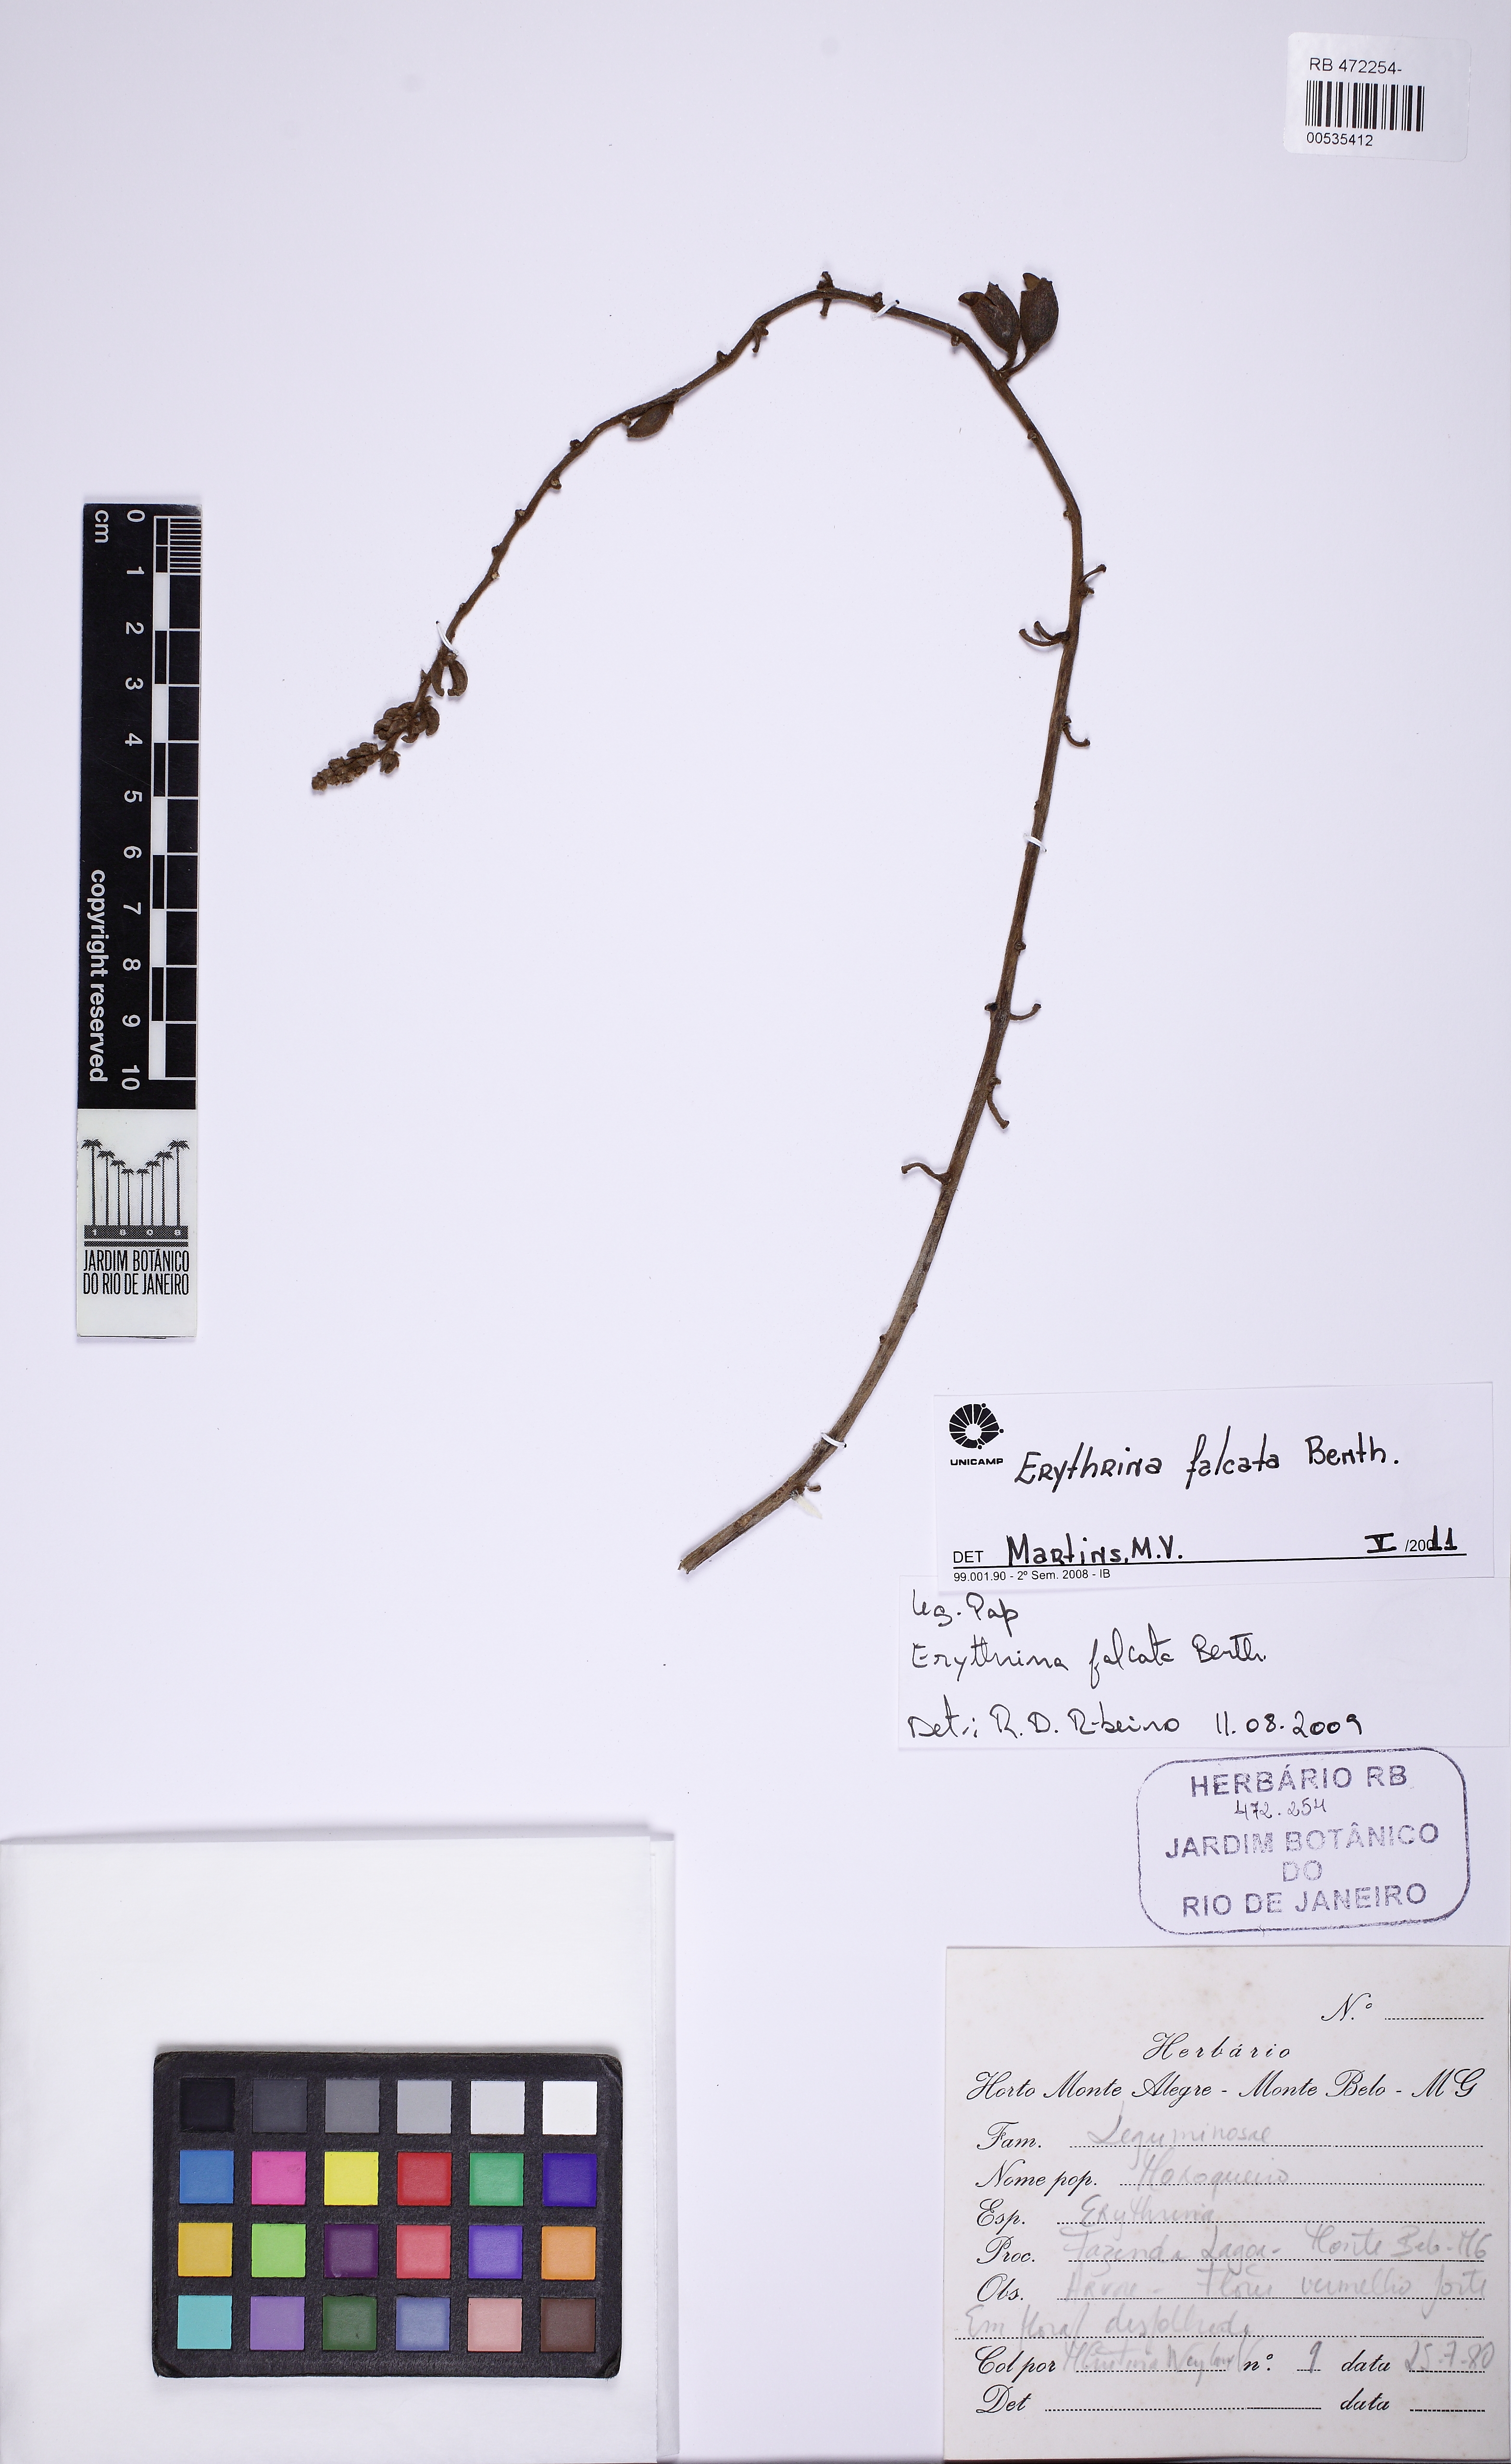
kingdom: Plantae
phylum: Tracheophyta
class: Magnoliopsida
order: Fabales
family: Fabaceae
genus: Erythrina
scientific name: Erythrina falcata
